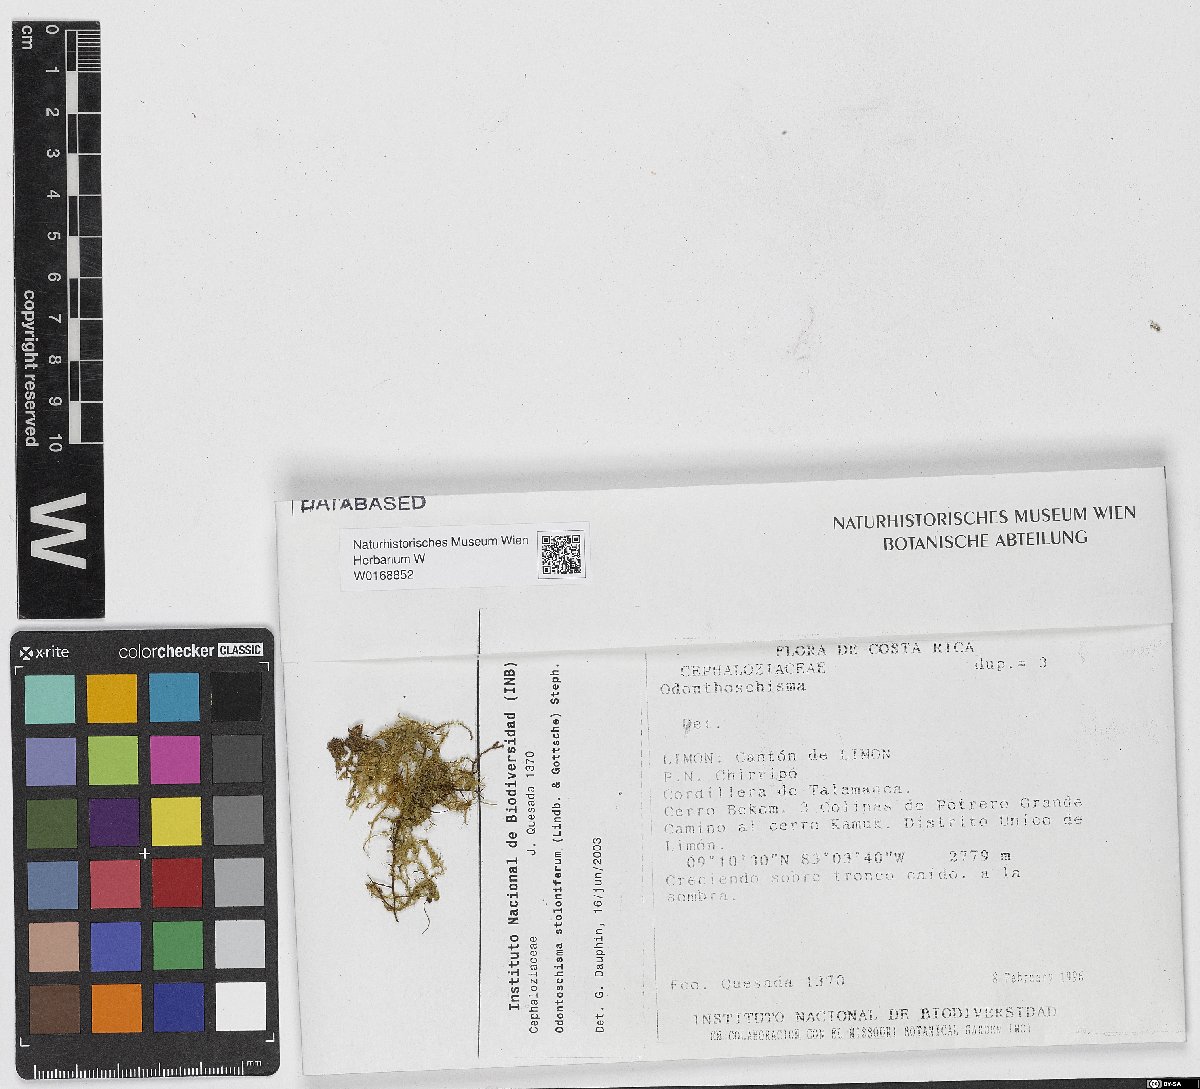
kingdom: Plantae
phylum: Marchantiophyta
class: Jungermanniopsida
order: Jungermanniales
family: Cephaloziaceae
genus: Odontoschisma
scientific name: Odontoschisma sphagni
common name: Bog-moss flapwort
